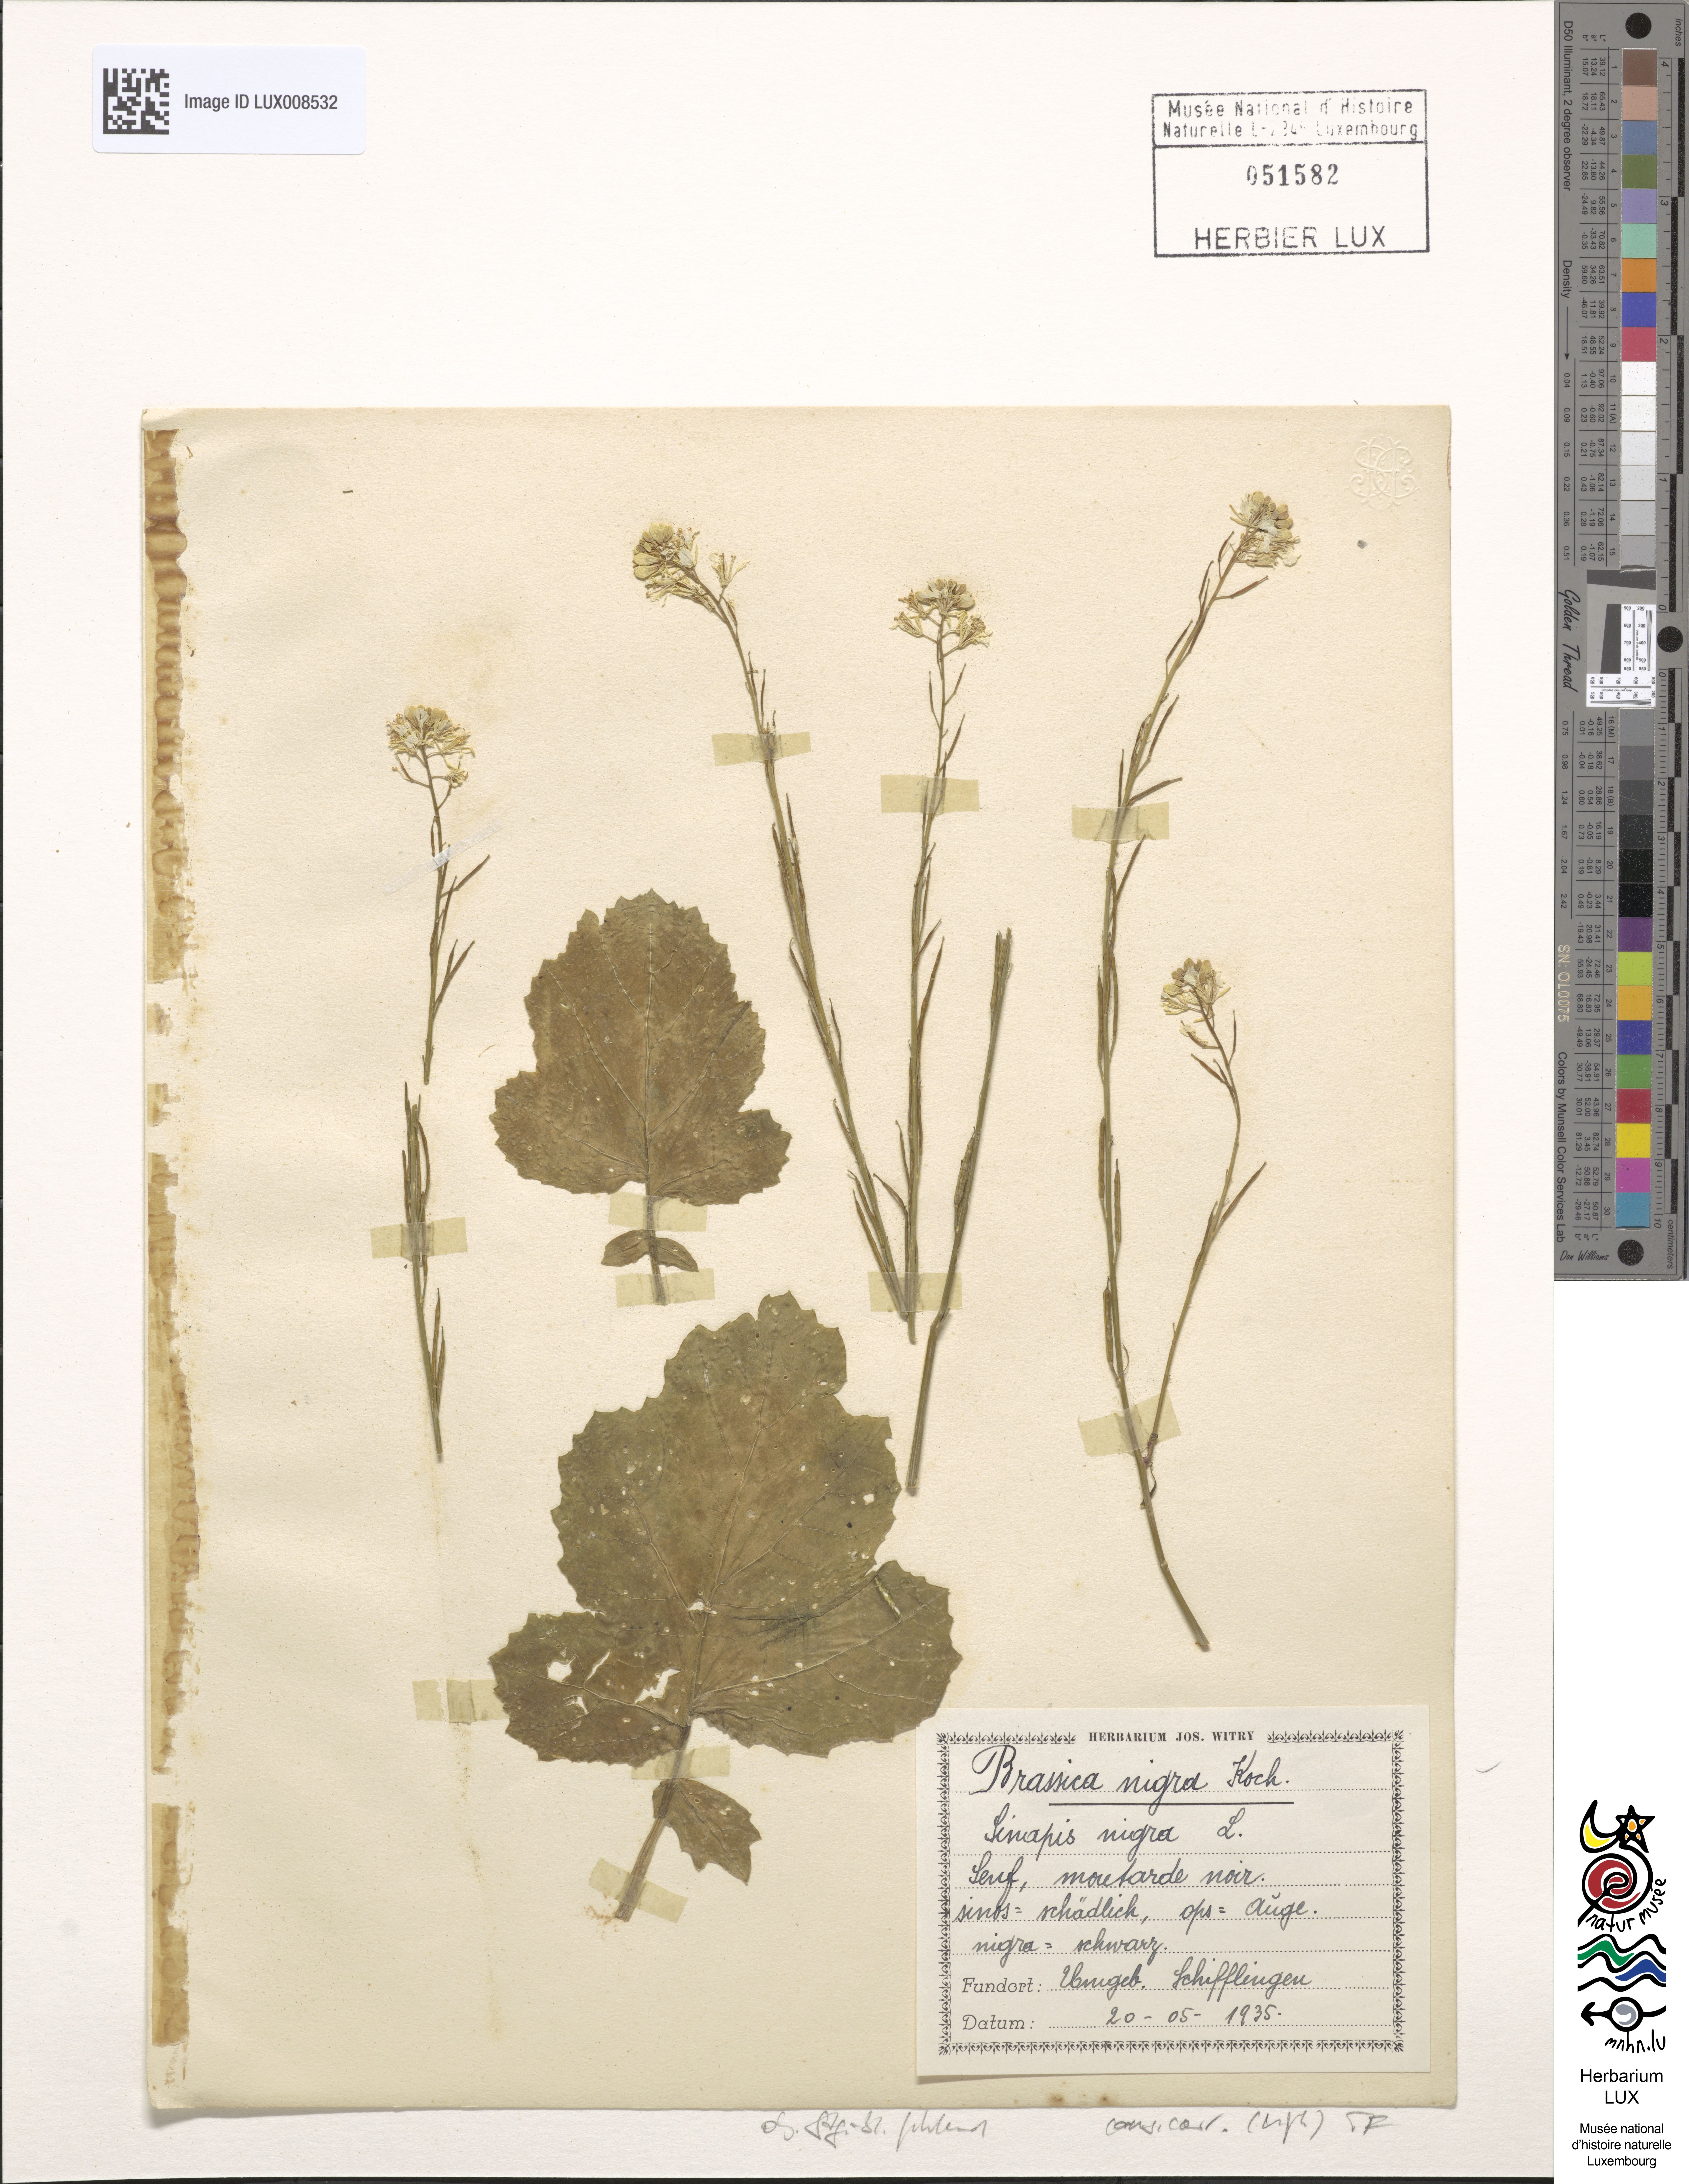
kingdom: Plantae
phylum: Tracheophyta
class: Magnoliopsida
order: Brassicales
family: Brassicaceae
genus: Brassica
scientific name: Brassica nigra
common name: Black mustard
